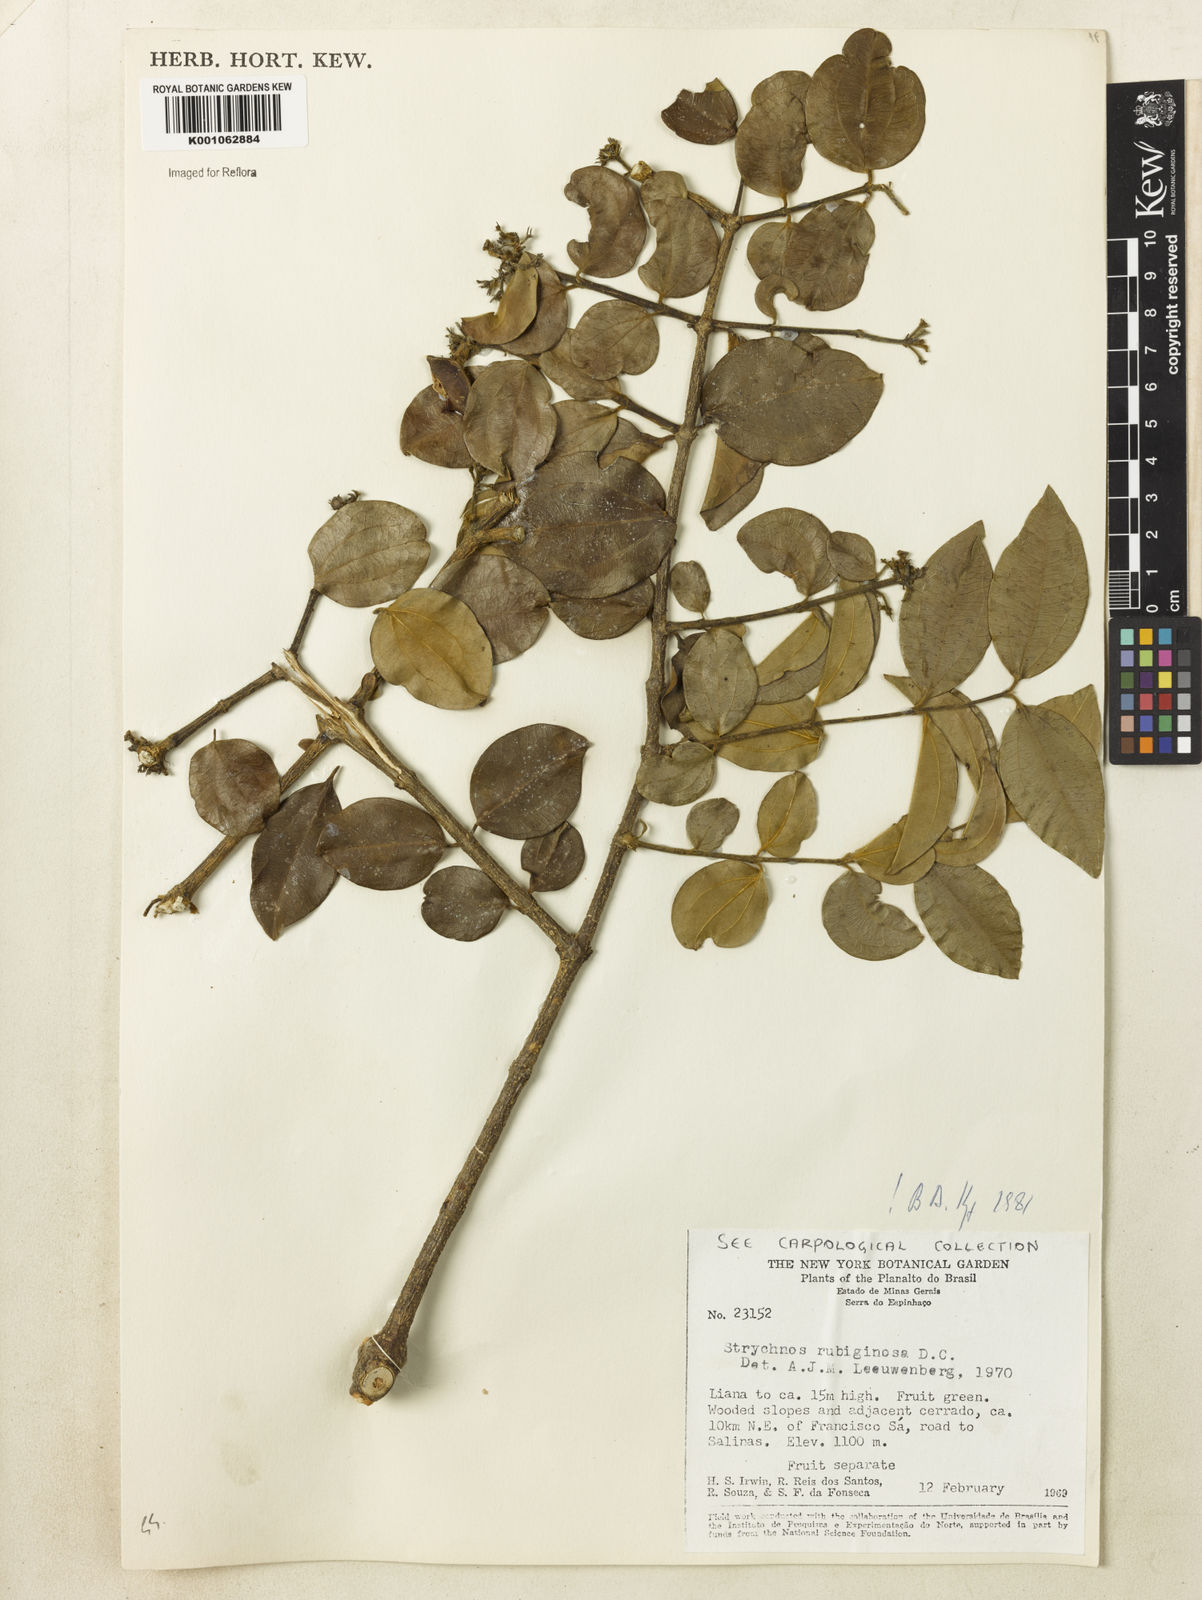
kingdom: Plantae
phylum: Tracheophyta
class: Magnoliopsida
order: Gentianales
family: Loganiaceae
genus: Strychnos
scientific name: Strychnos rubiginosa
